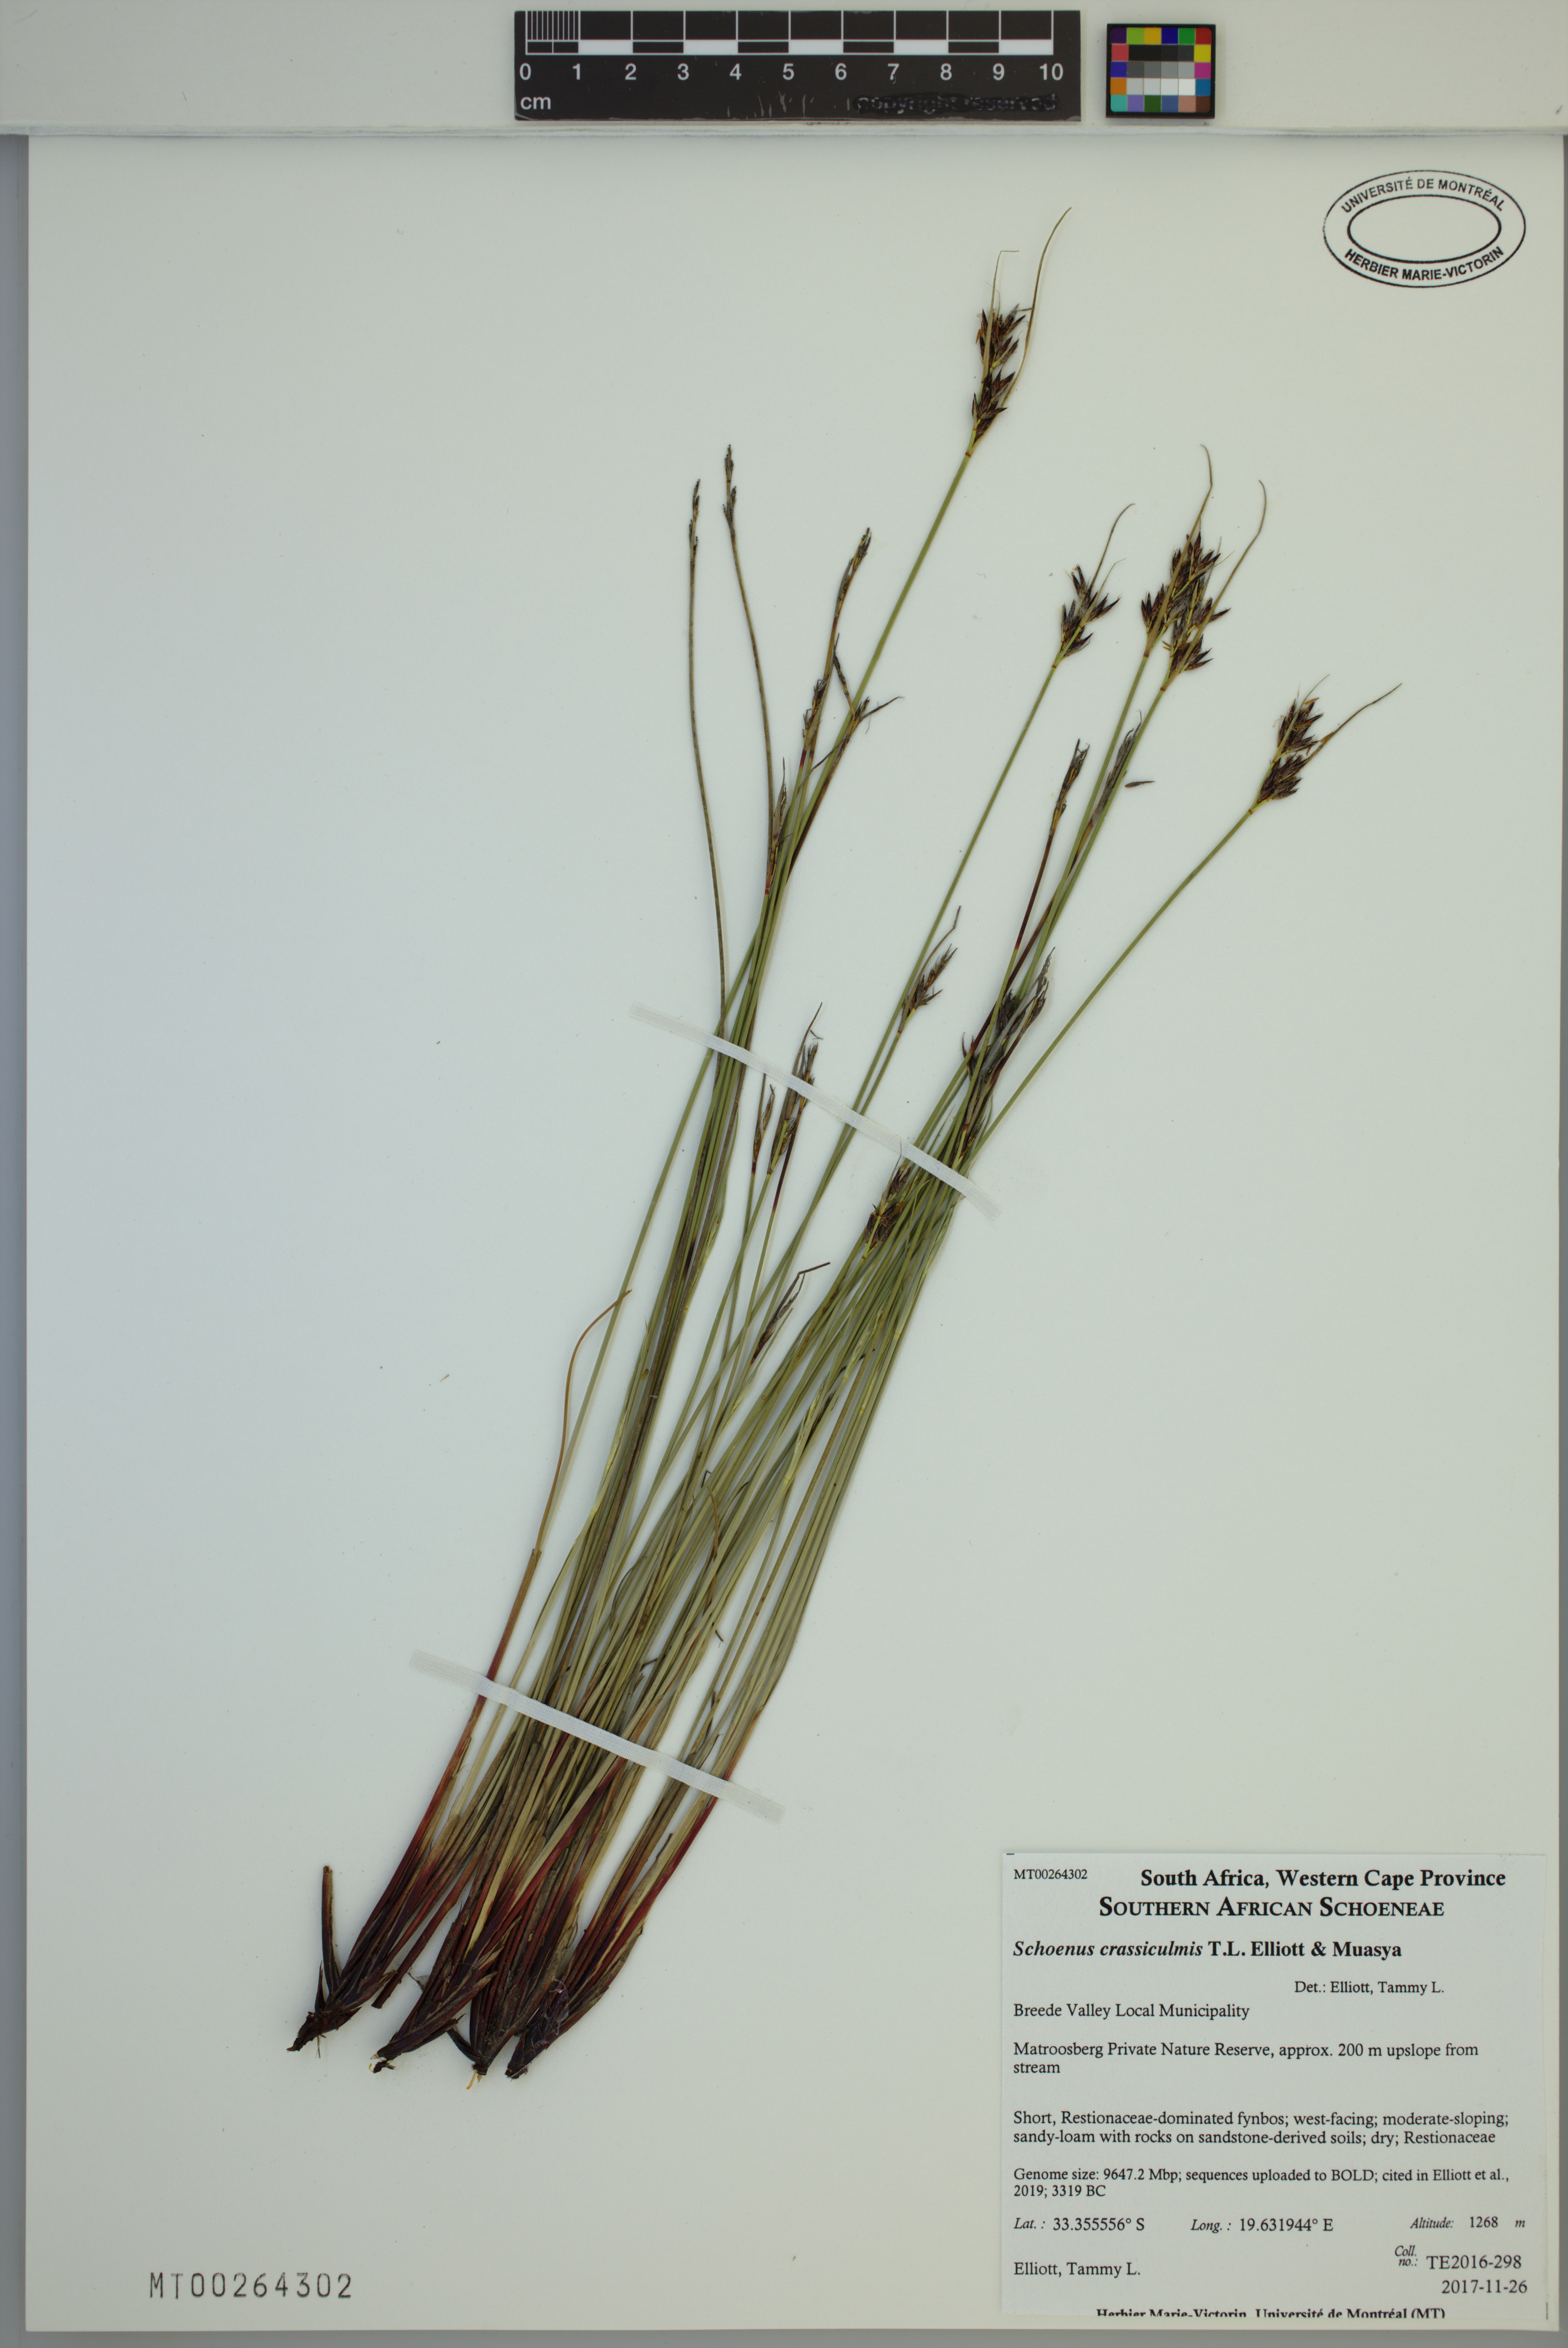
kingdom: Plantae
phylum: Tracheophyta
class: Liliopsida
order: Poales
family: Cyperaceae
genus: Schoenus
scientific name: Schoenus crassiculmis
